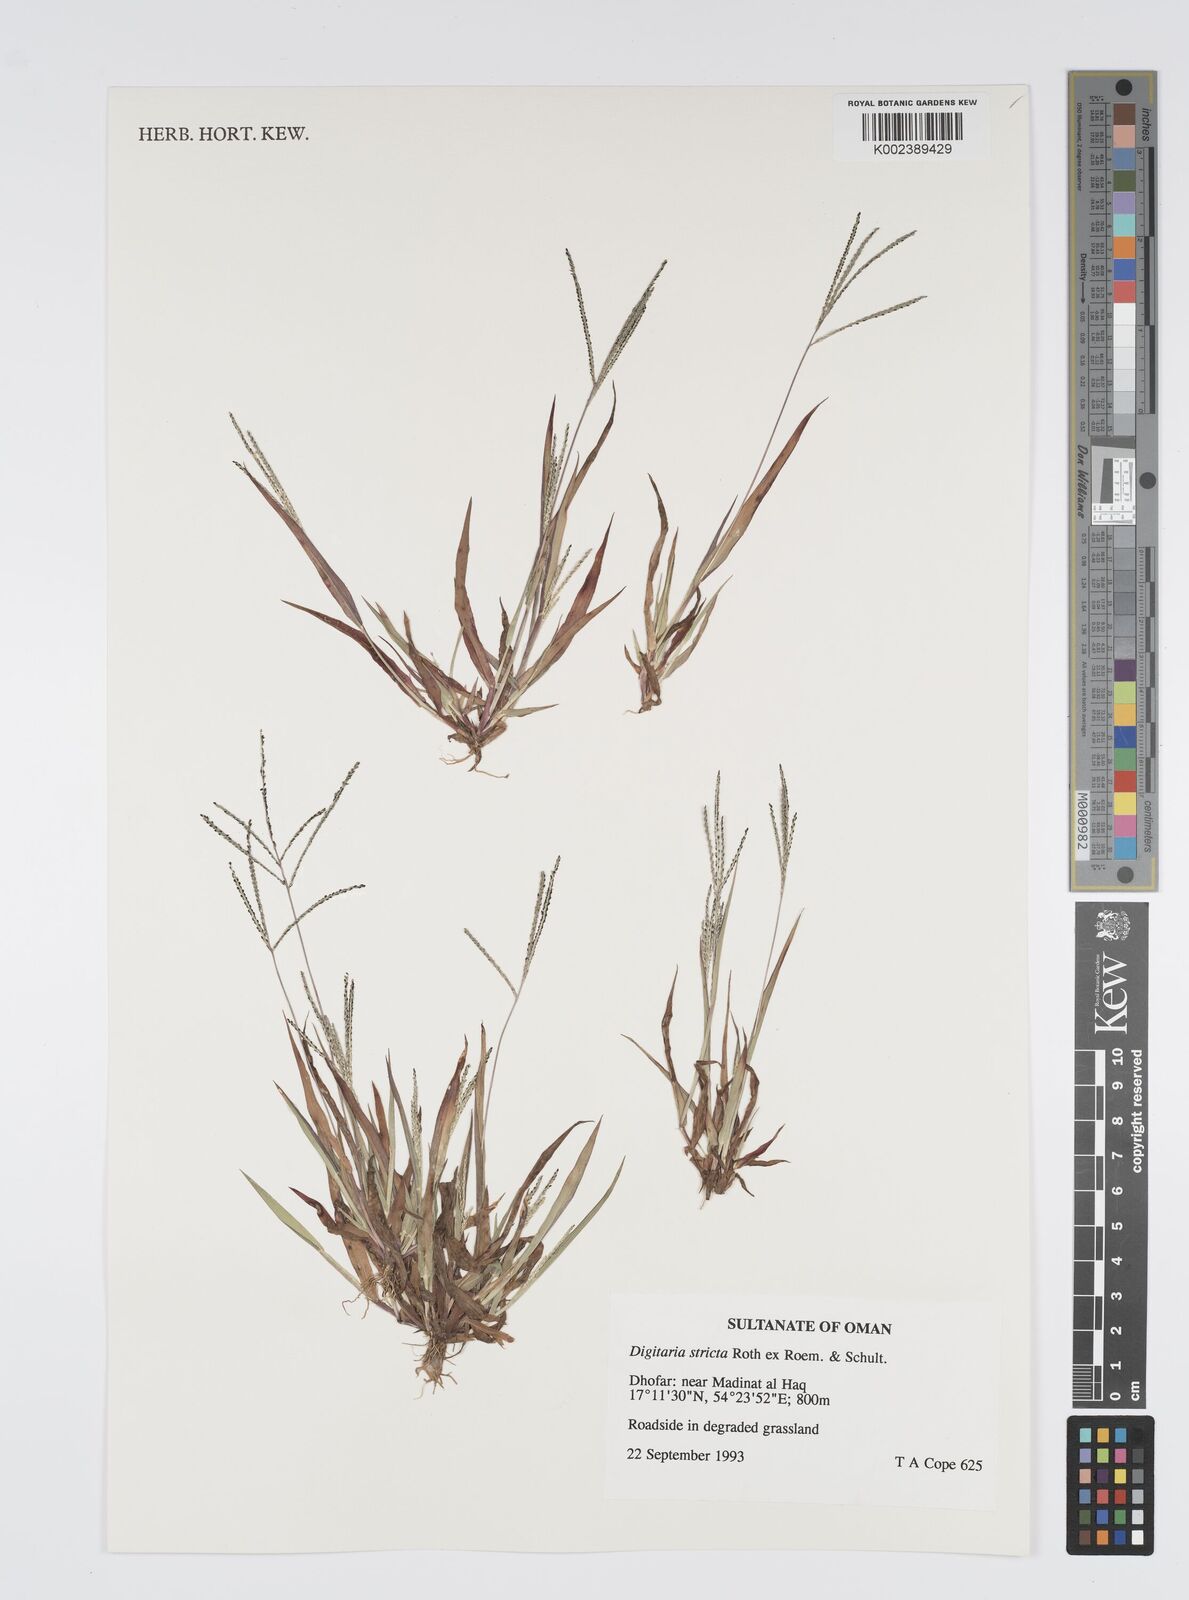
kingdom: Plantae
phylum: Tracheophyta
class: Liliopsida
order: Poales
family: Poaceae
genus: Digitaria
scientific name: Digitaria stricta
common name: Crabgrass
